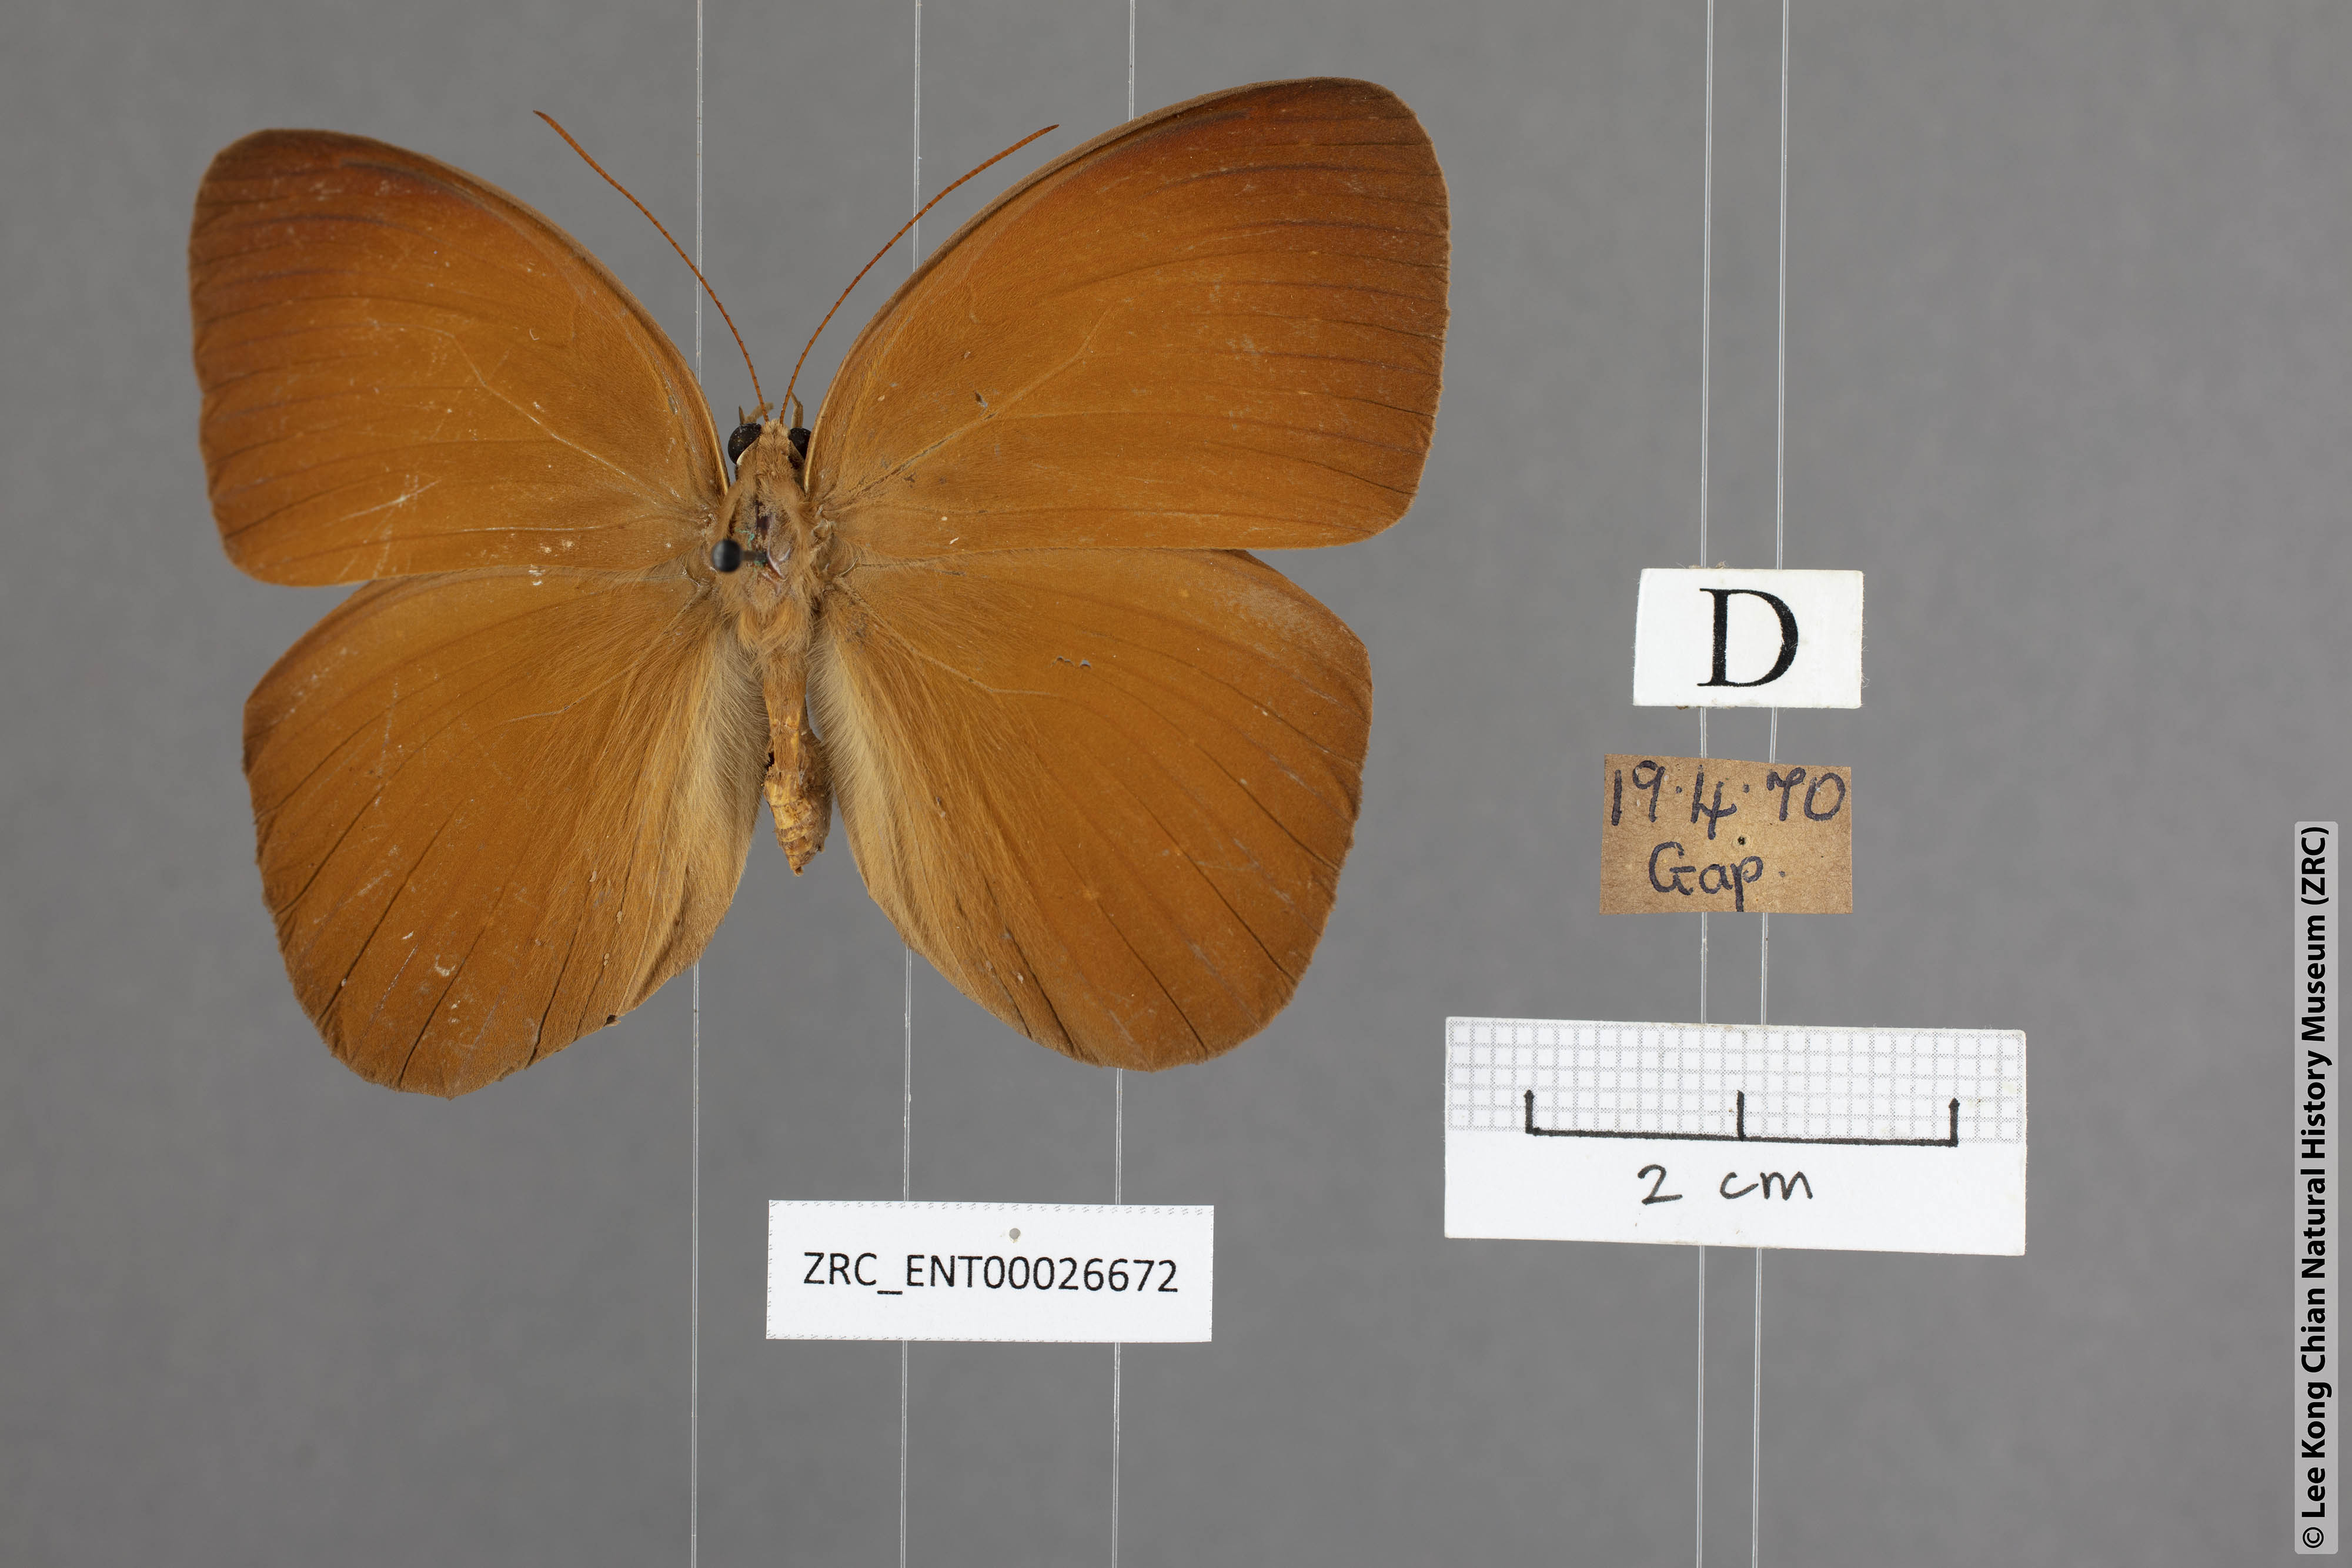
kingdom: Animalia
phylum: Arthropoda
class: Insecta
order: Lepidoptera
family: Nymphalidae
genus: Faunis
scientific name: Faunis canens
